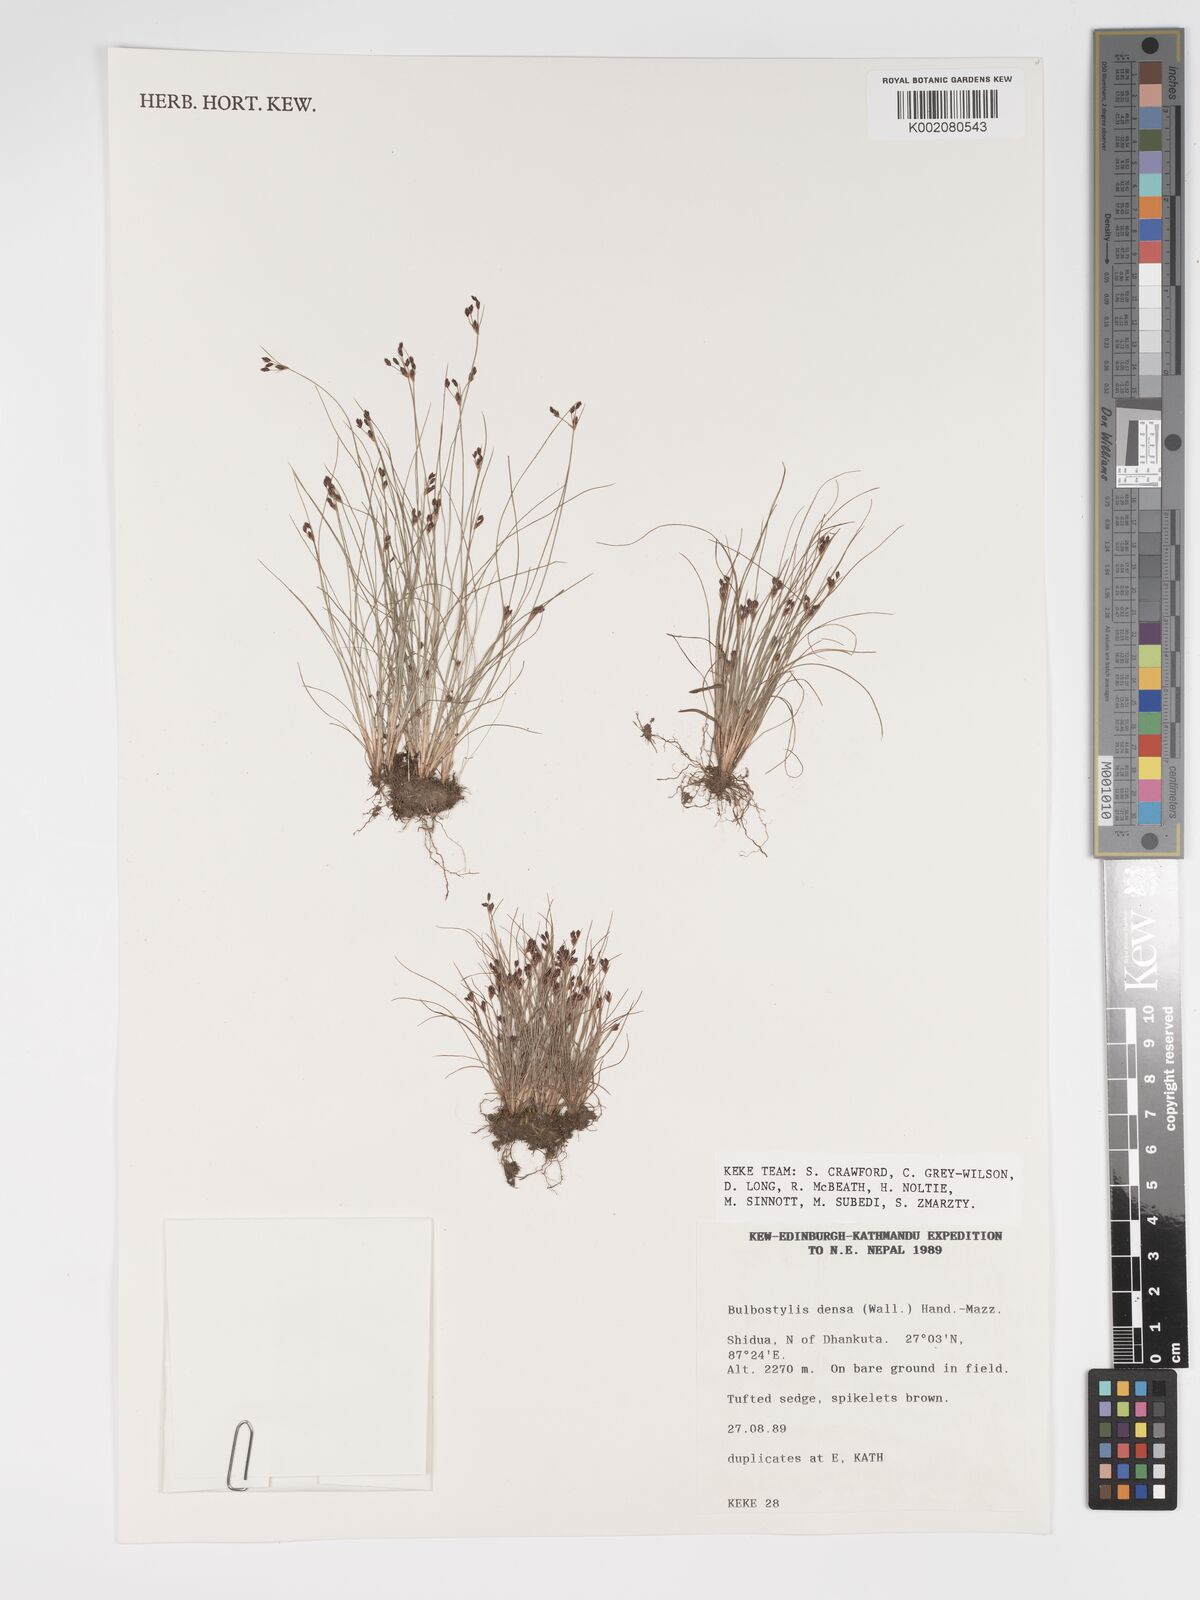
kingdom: Plantae
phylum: Tracheophyta
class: Liliopsida
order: Poales
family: Cyperaceae
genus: Bulbostylis
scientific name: Bulbostylis densa
